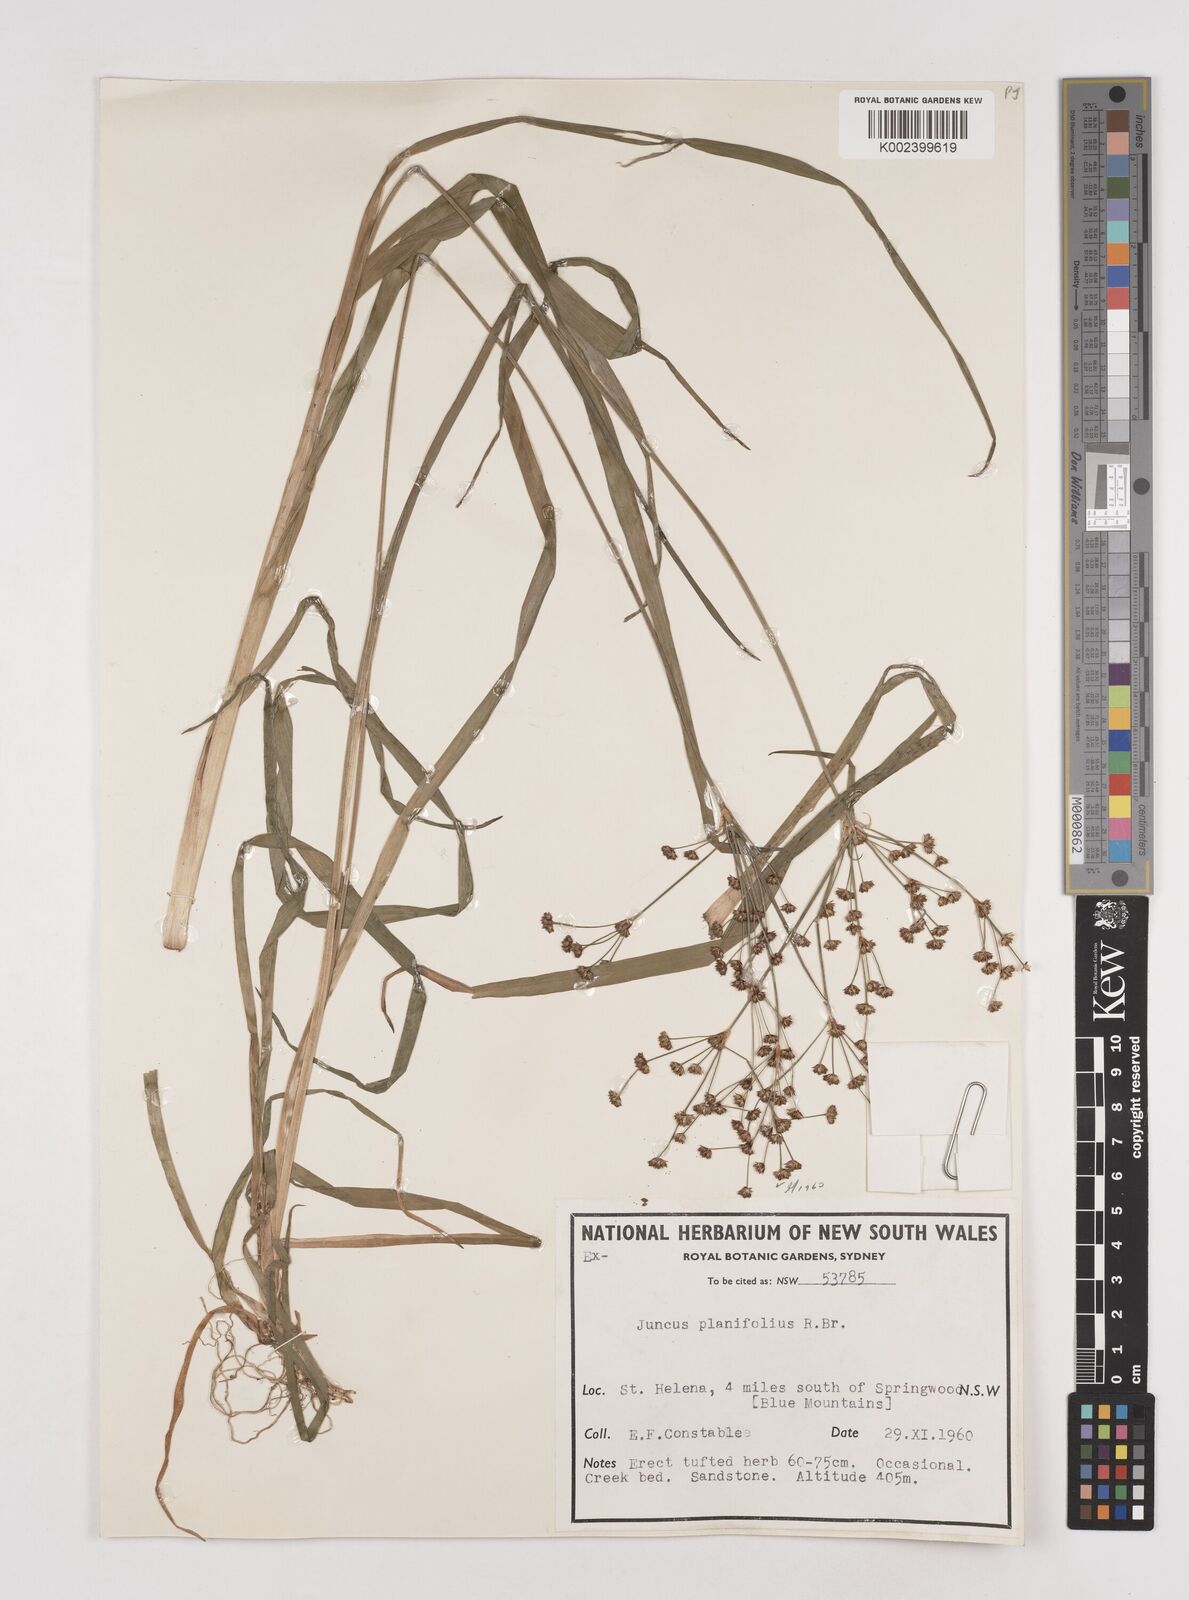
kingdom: Plantae
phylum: Tracheophyta
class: Liliopsida
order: Poales
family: Juncaceae
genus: Juncus
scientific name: Juncus planifolius
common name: Broadleaf rush
